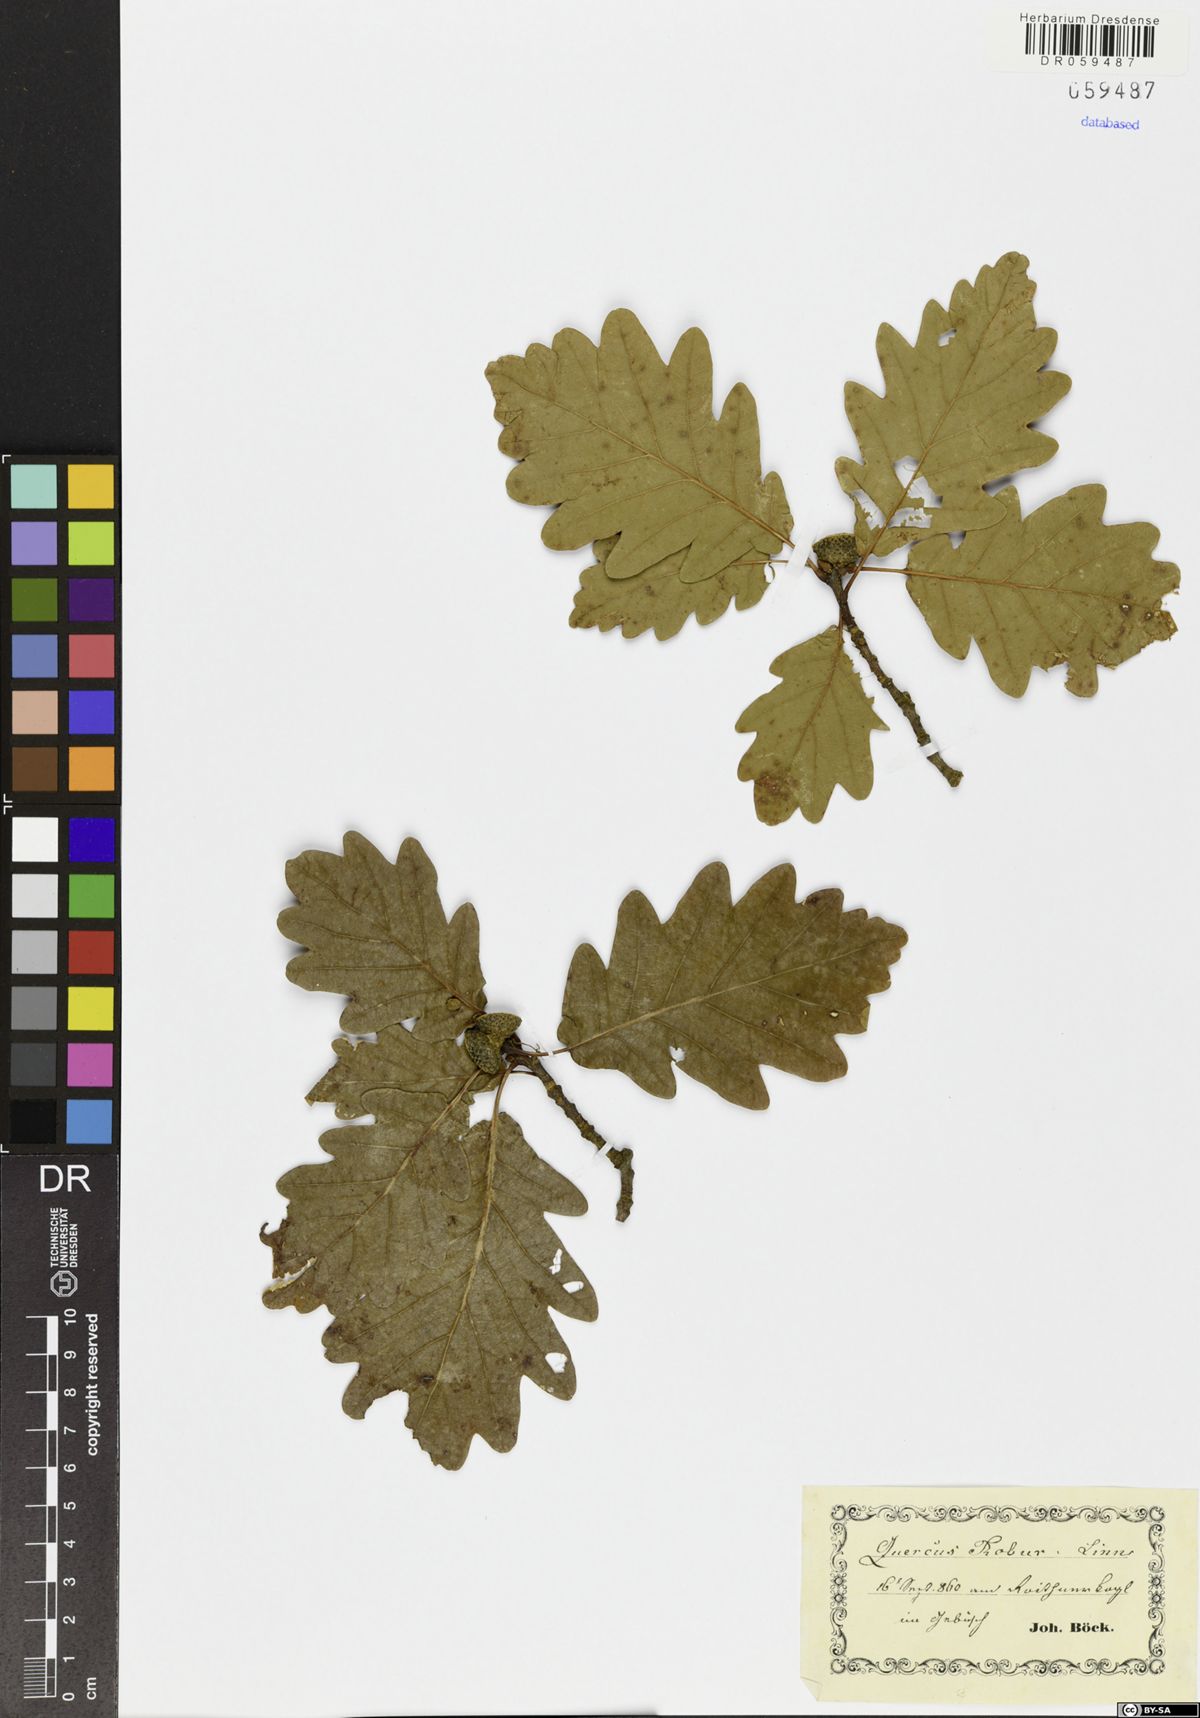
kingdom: Plantae
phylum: Tracheophyta
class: Magnoliopsida
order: Fagales
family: Fagaceae
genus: Quercus
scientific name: Quercus robur
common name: Pedunculate oak
